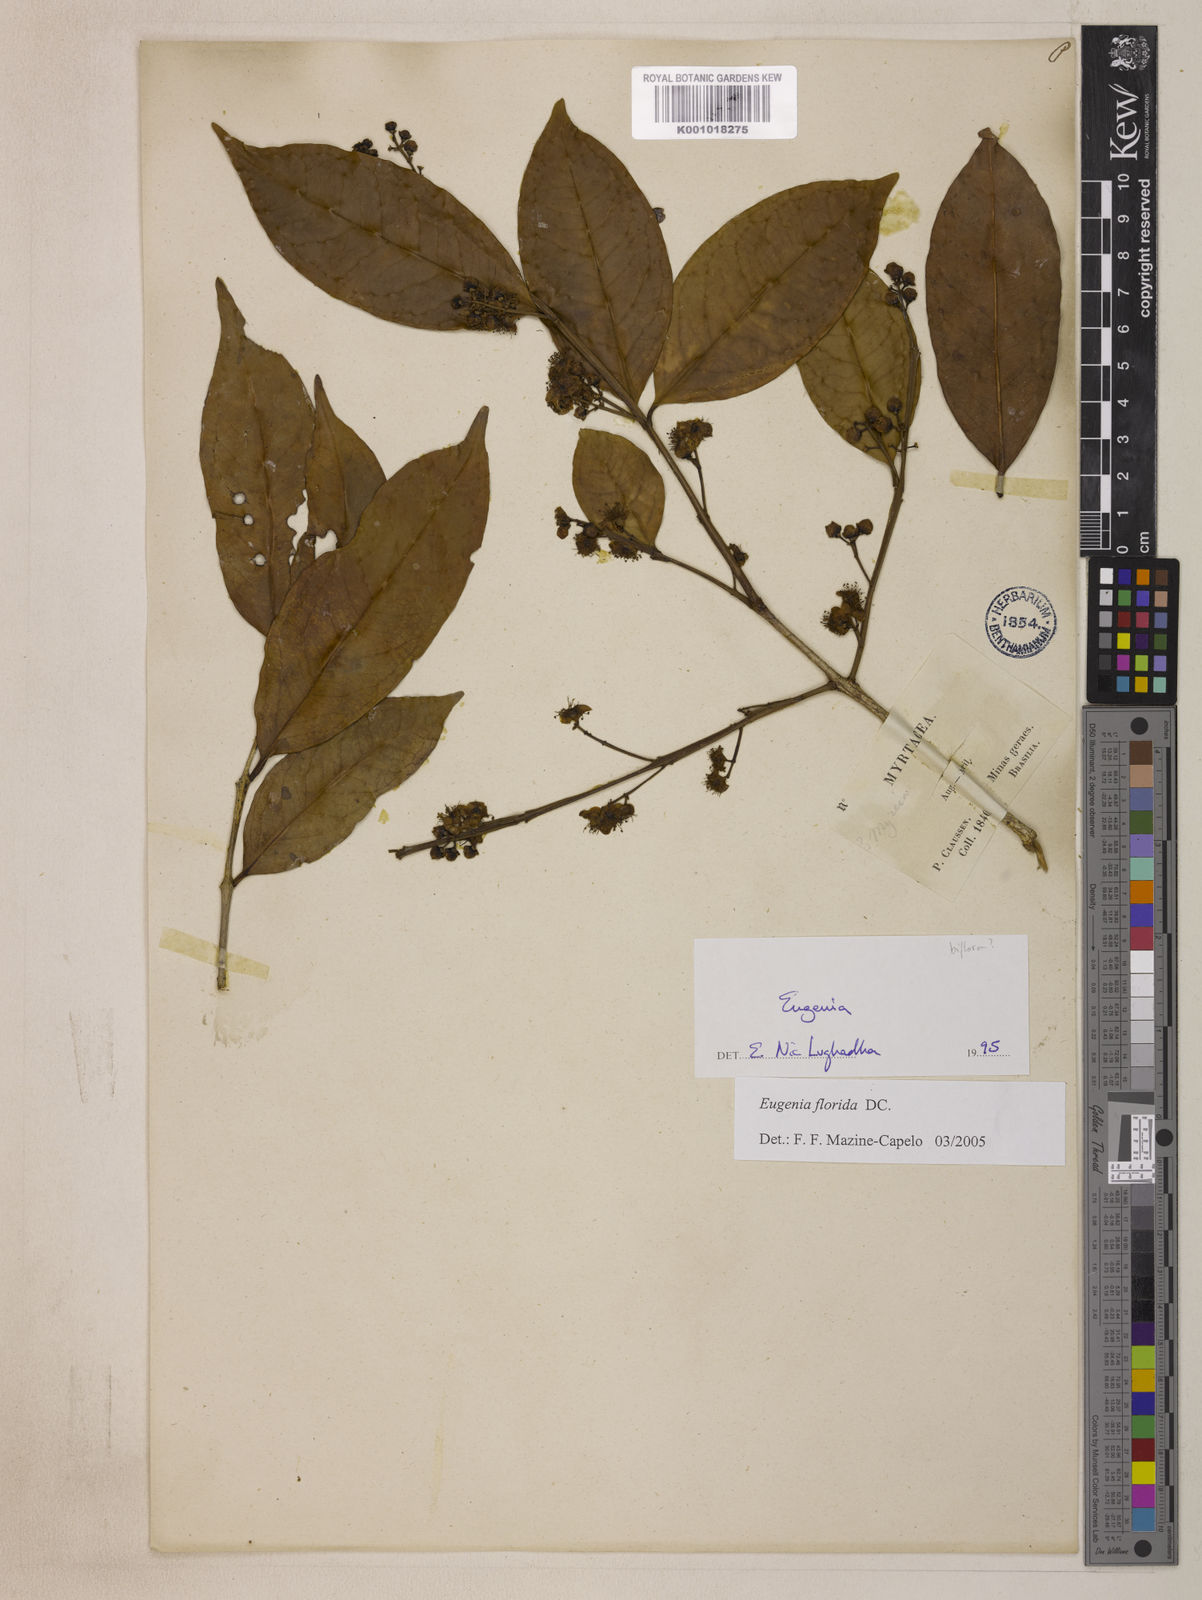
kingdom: Plantae
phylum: Tracheophyta
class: Magnoliopsida
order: Myrtales
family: Myrtaceae
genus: Eugenia
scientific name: Eugenia florida
